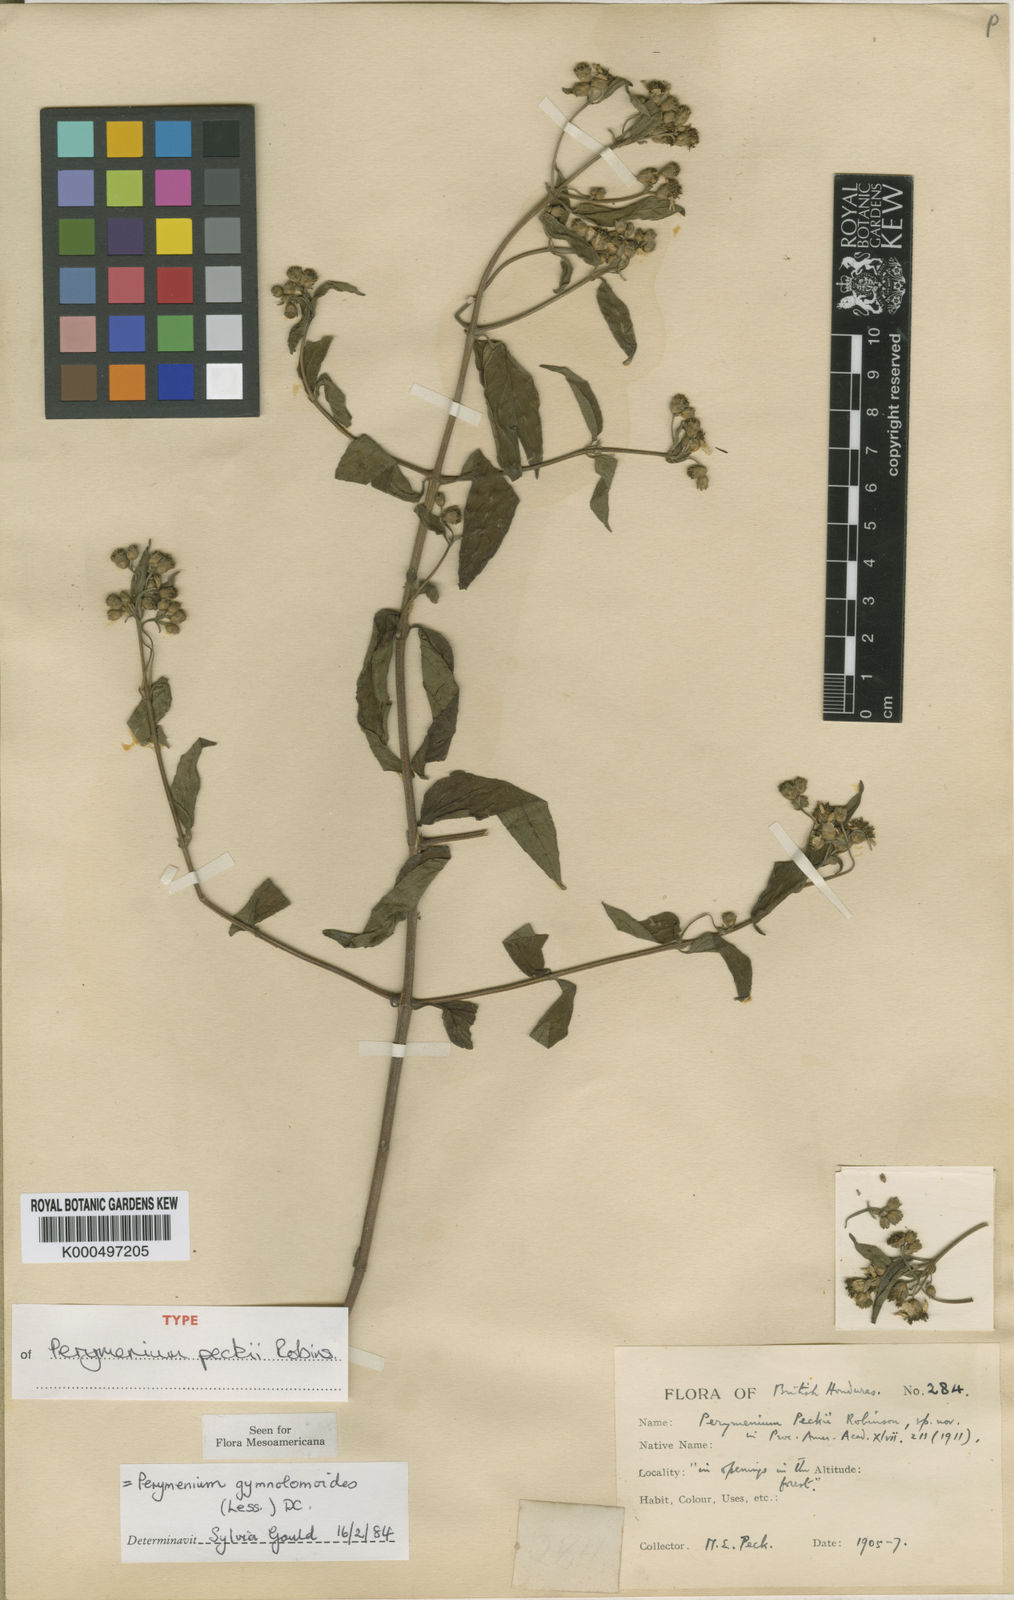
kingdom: Plantae
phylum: Tracheophyta
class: Magnoliopsida
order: Asterales
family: Asteraceae
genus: Perymenium
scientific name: Perymenium gymnolomoides
